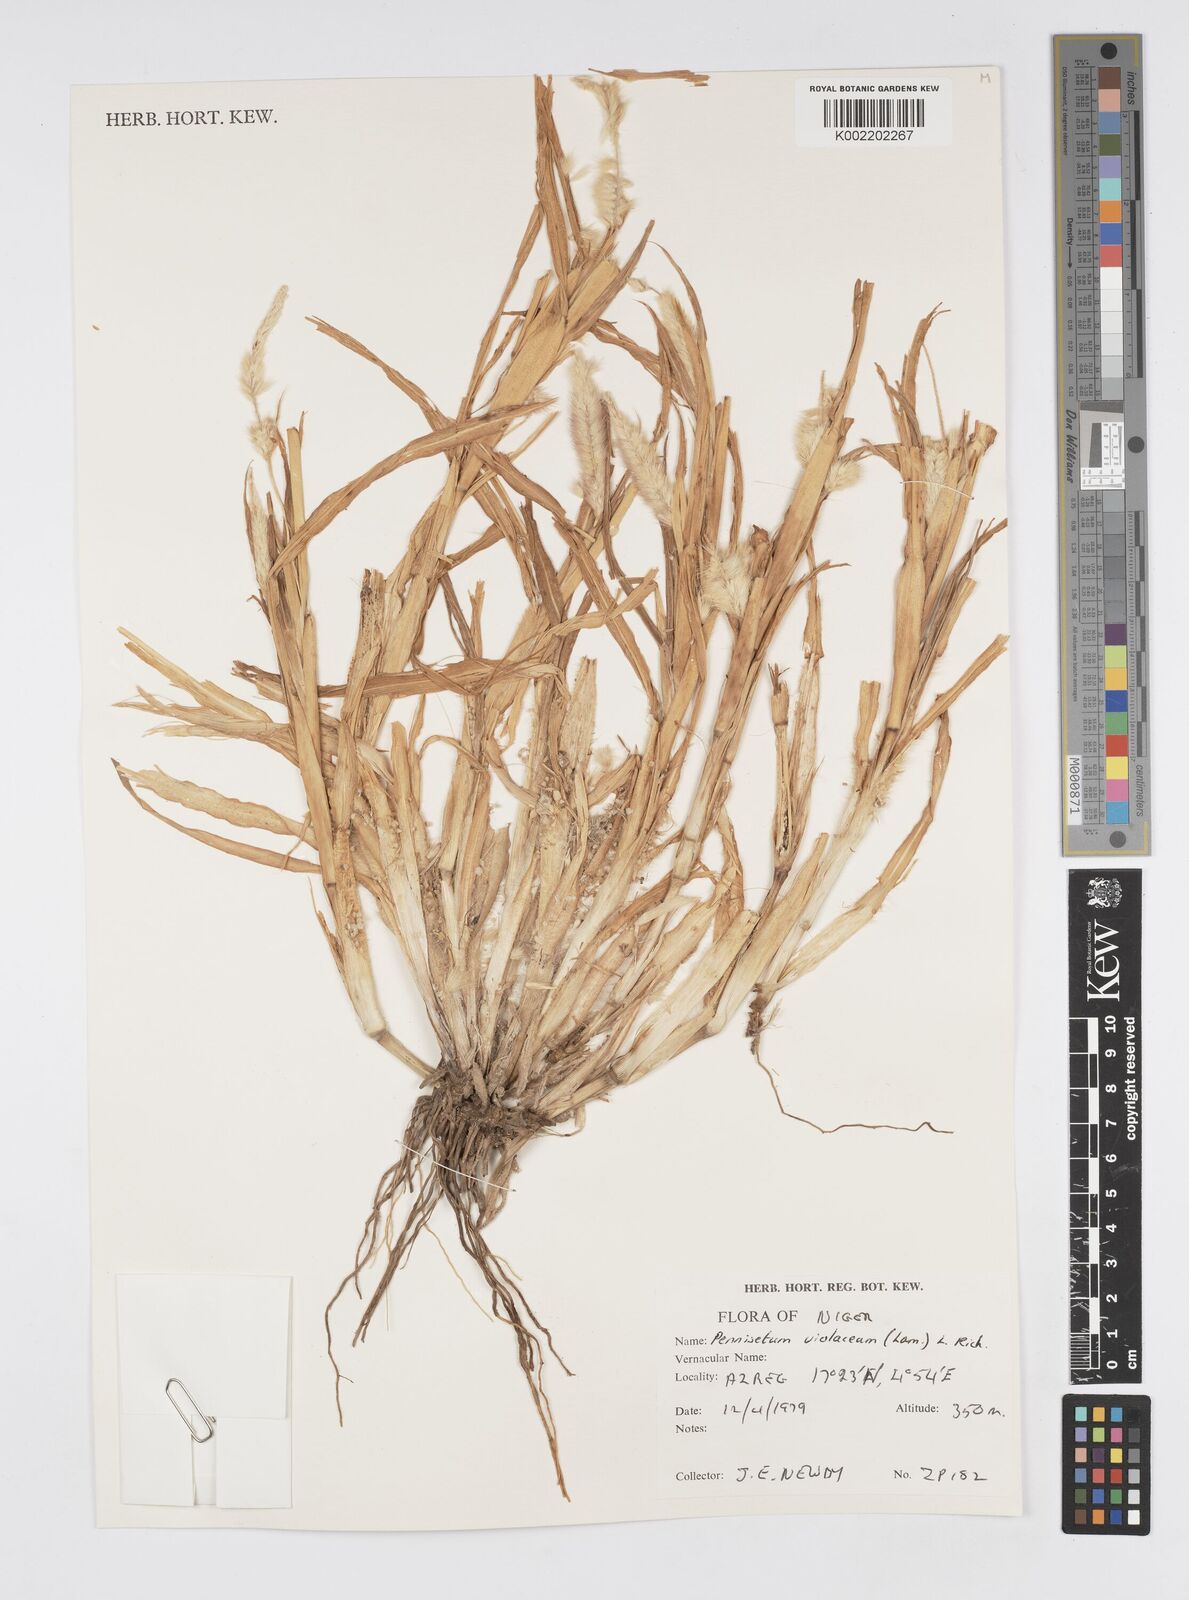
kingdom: Plantae
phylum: Tracheophyta
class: Liliopsida
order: Poales
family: Poaceae
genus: Cenchrus
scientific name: Cenchrus violaceus
